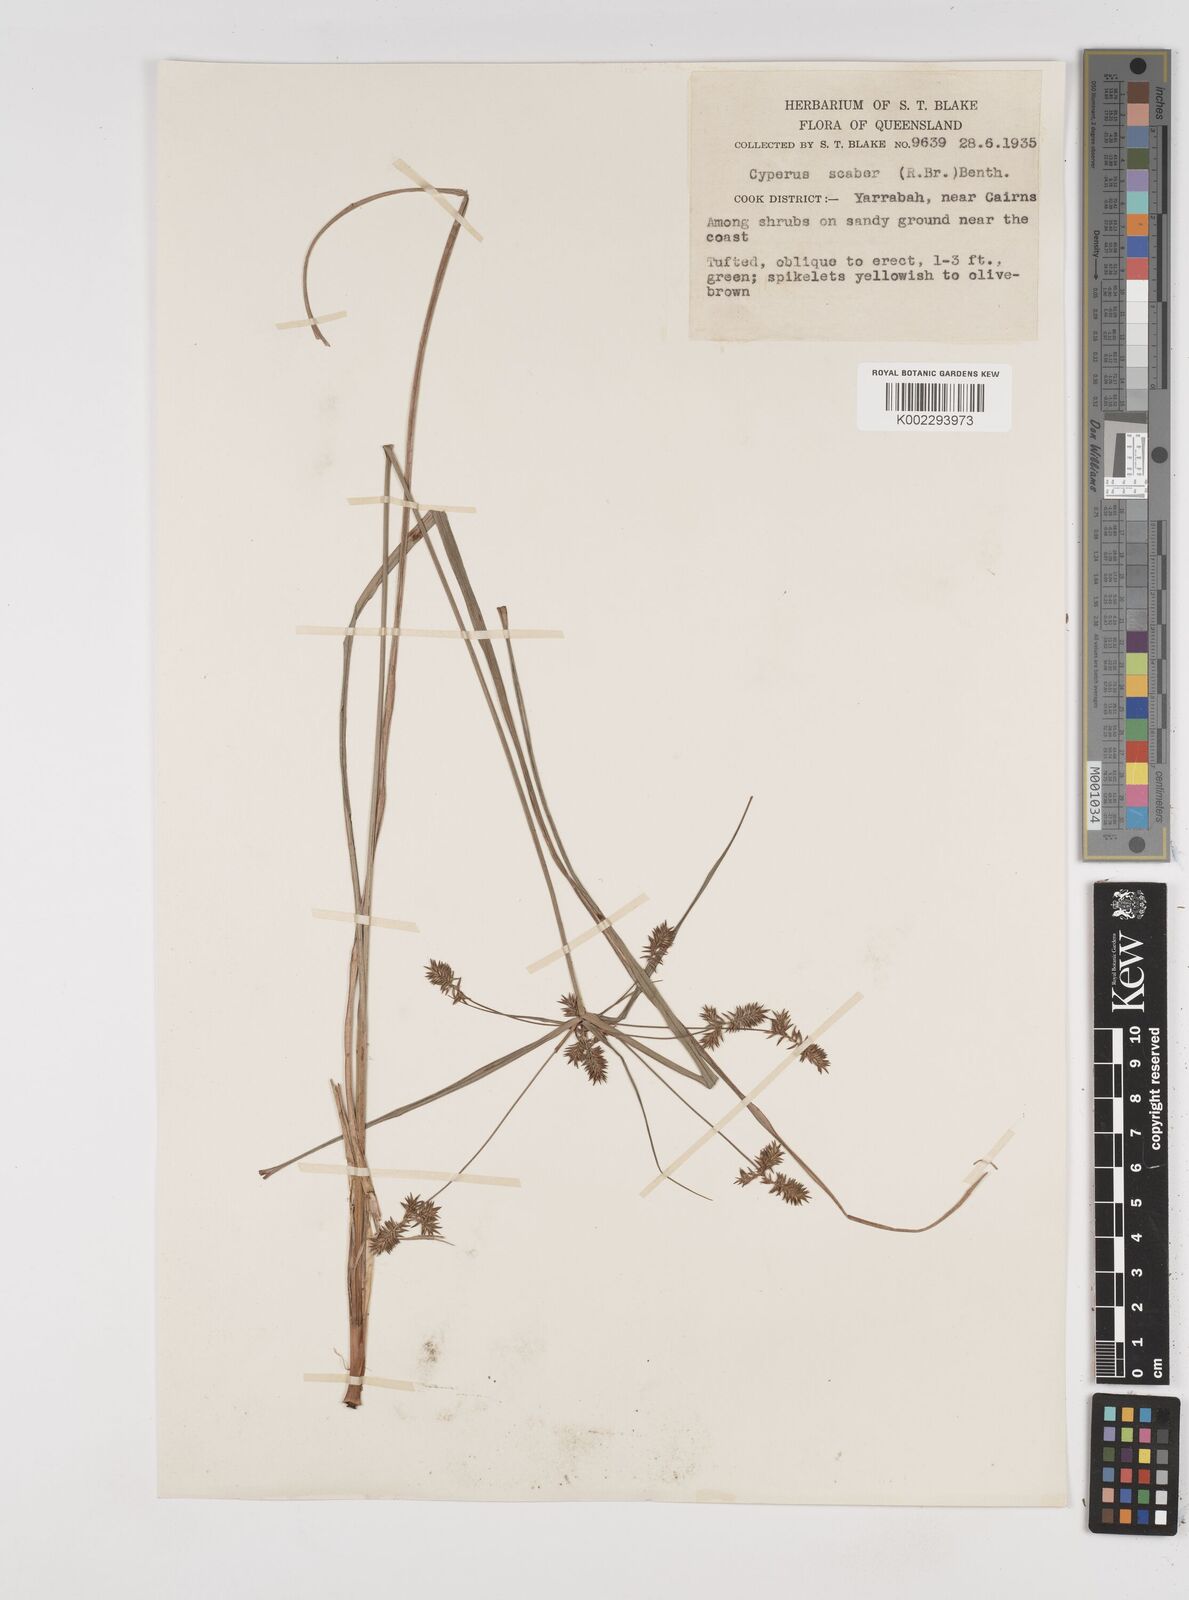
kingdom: Plantae
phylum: Tracheophyta
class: Liliopsida
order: Poales
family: Cyperaceae
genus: Cyperus
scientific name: Cyperus scaber
